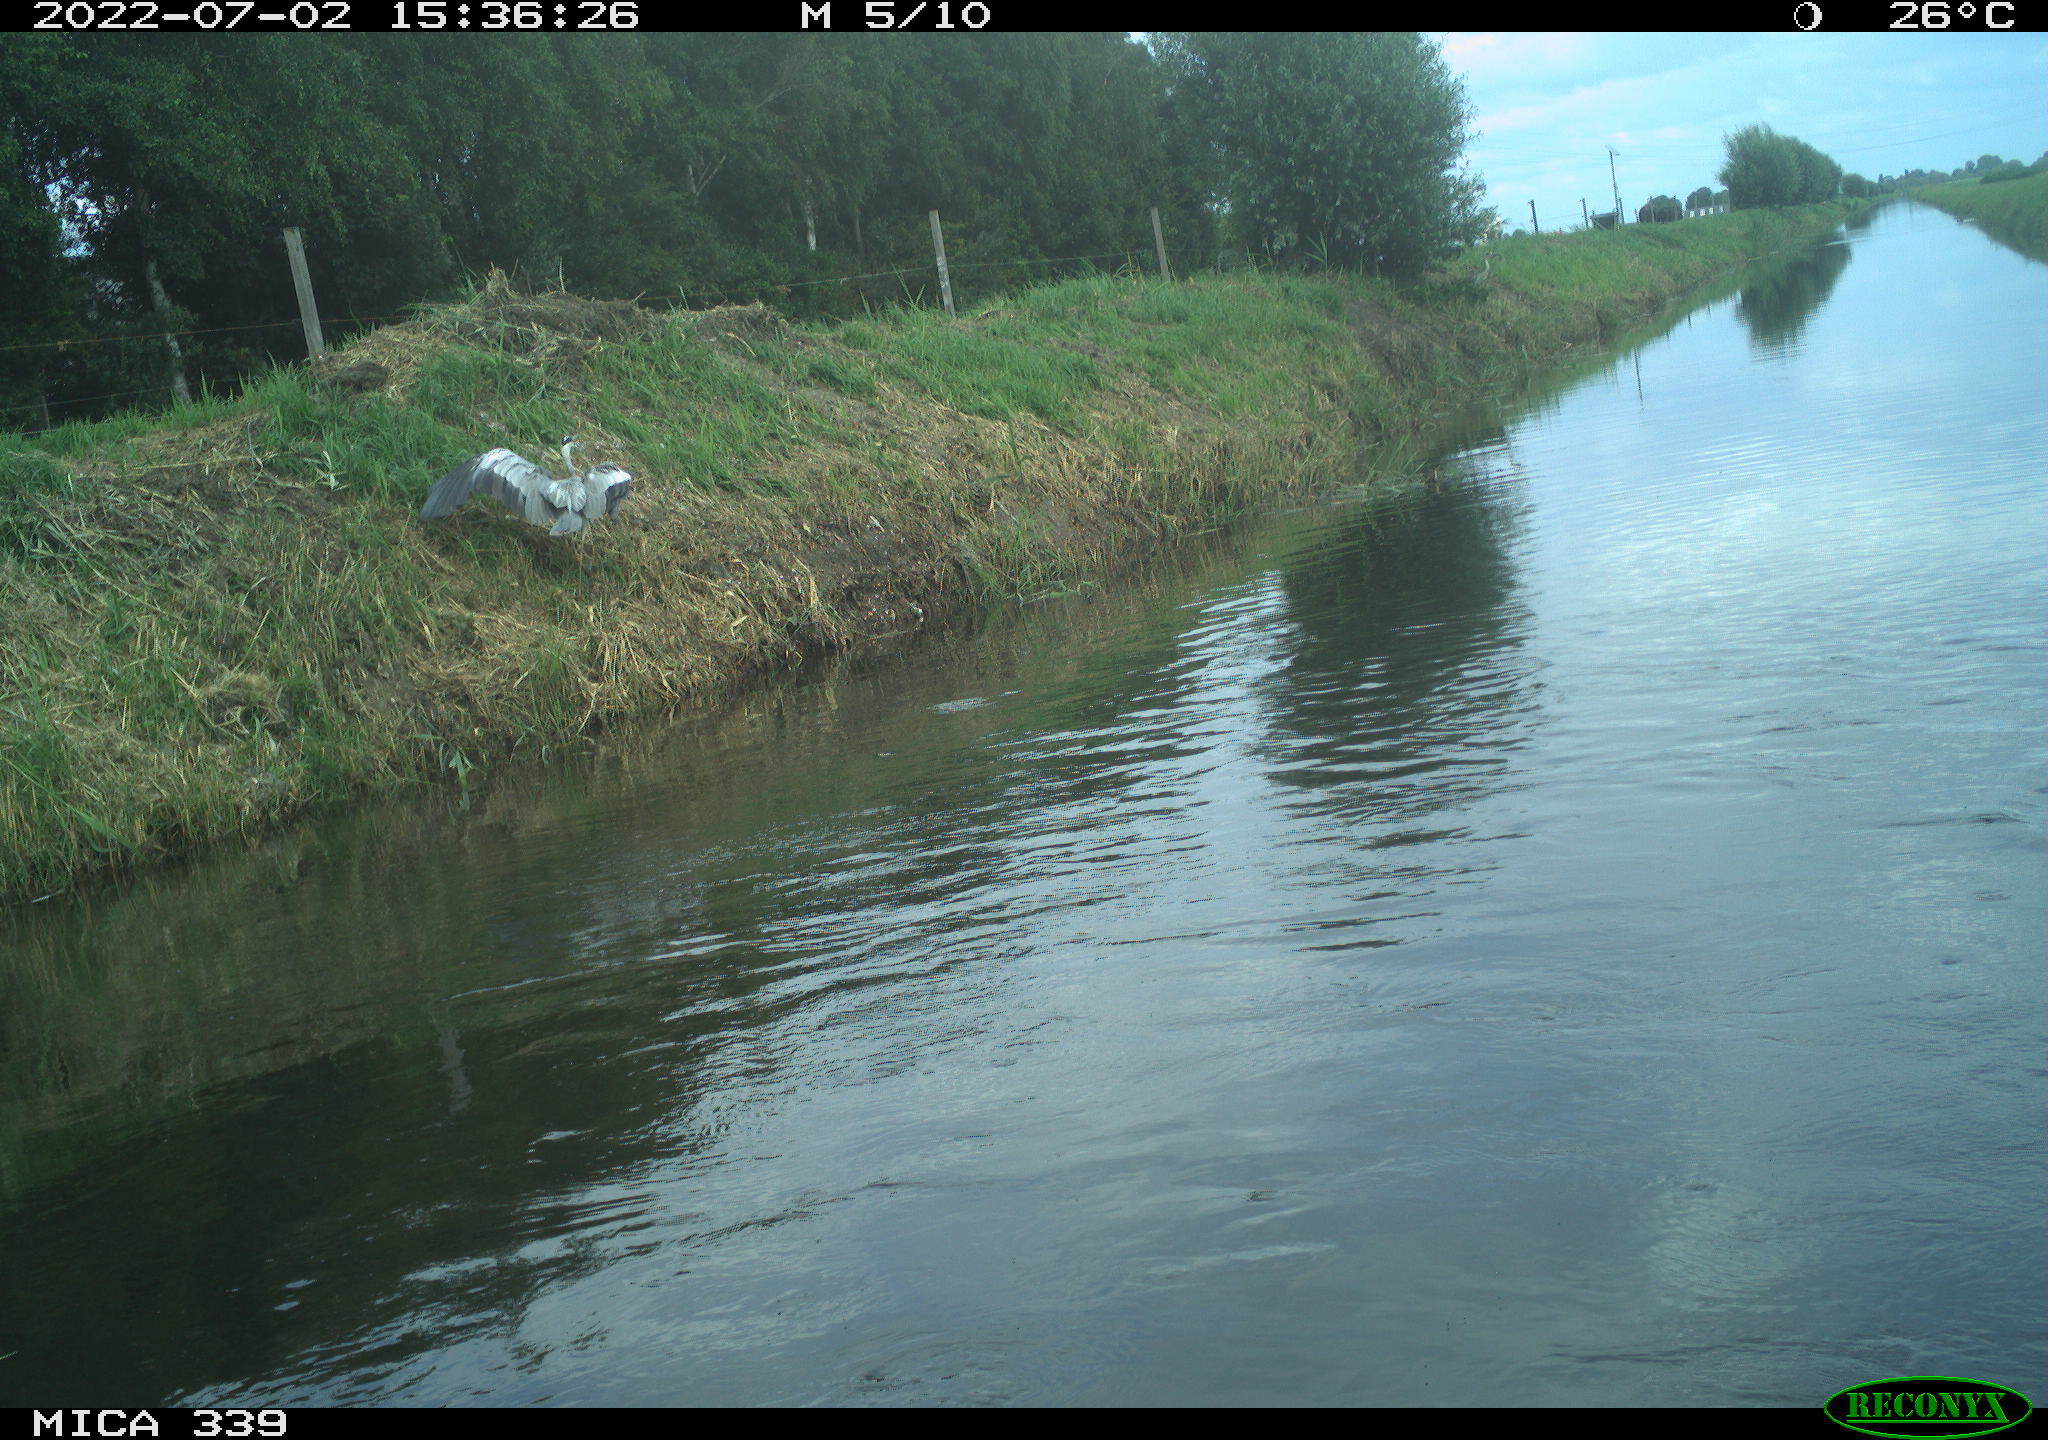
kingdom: Animalia
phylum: Chordata
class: Aves
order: Pelecaniformes
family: Ardeidae
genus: Ardea
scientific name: Ardea cinerea
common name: Grey heron
